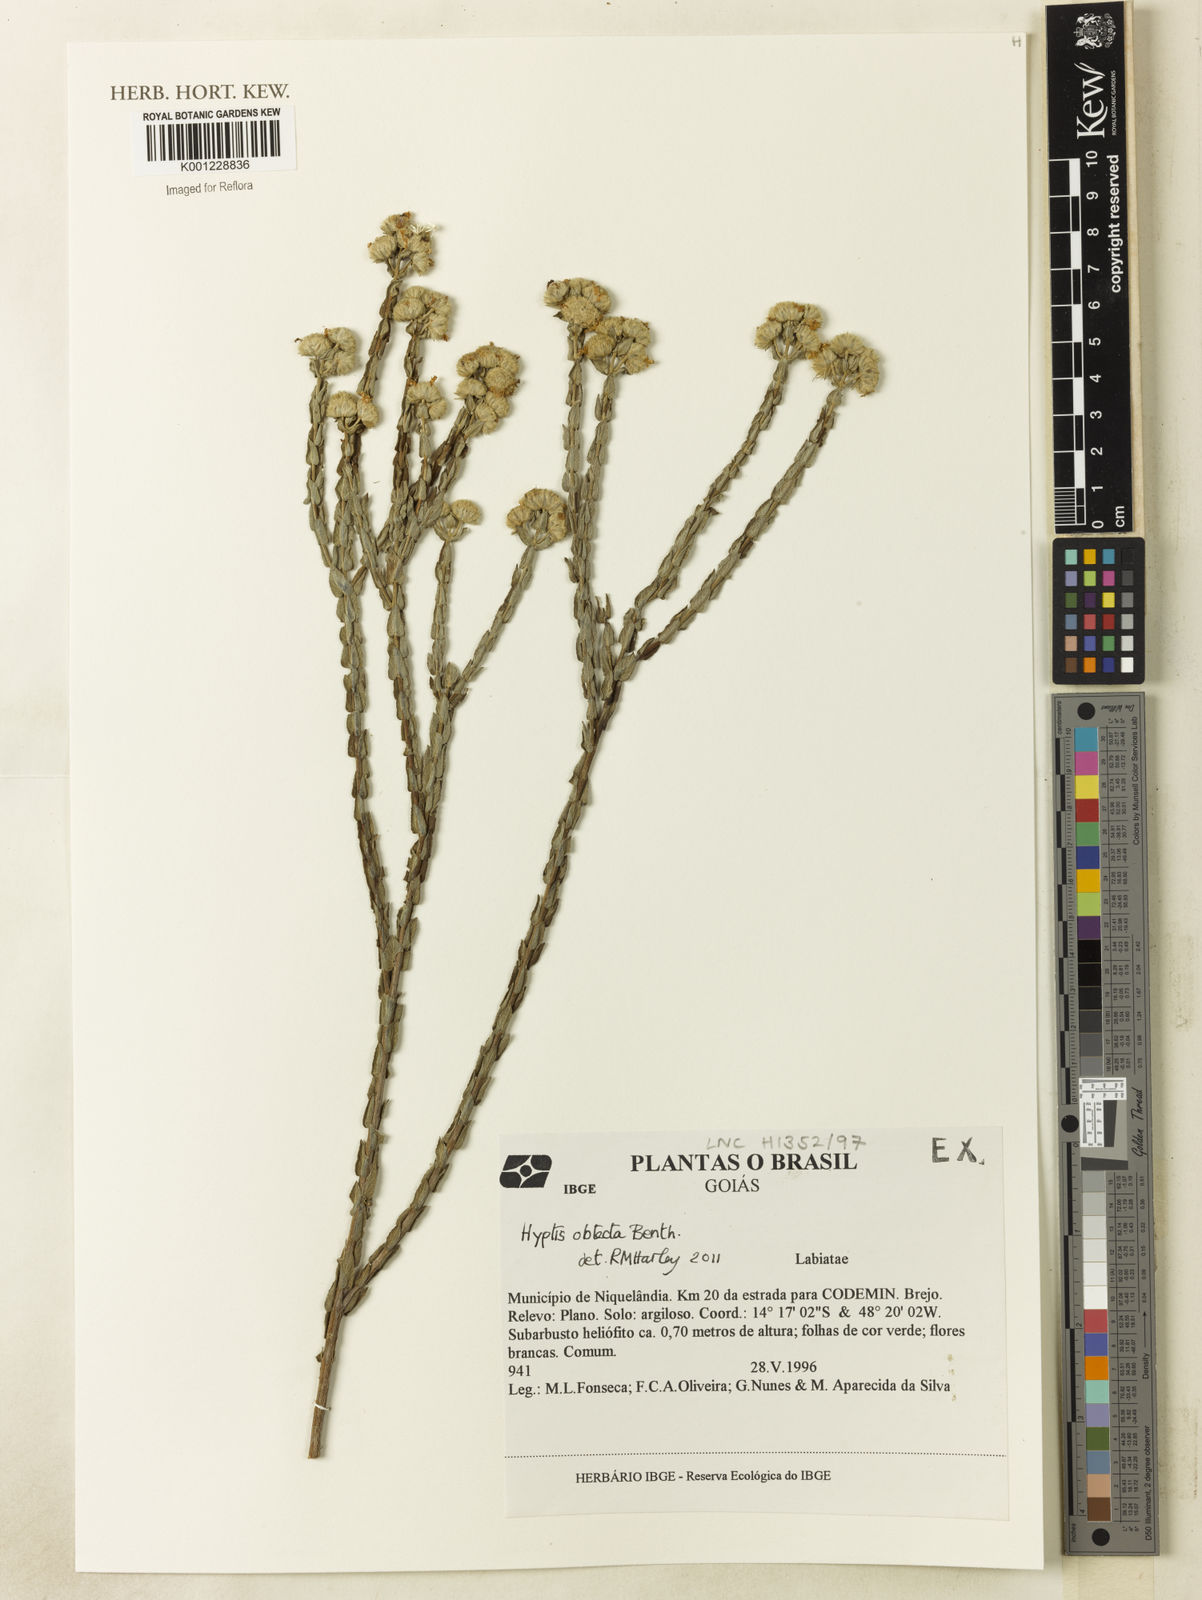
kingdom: Plantae
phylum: Tracheophyta
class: Magnoliopsida
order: Lamiales
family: Lamiaceae
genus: Hyptis
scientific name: Hyptis obtecta
